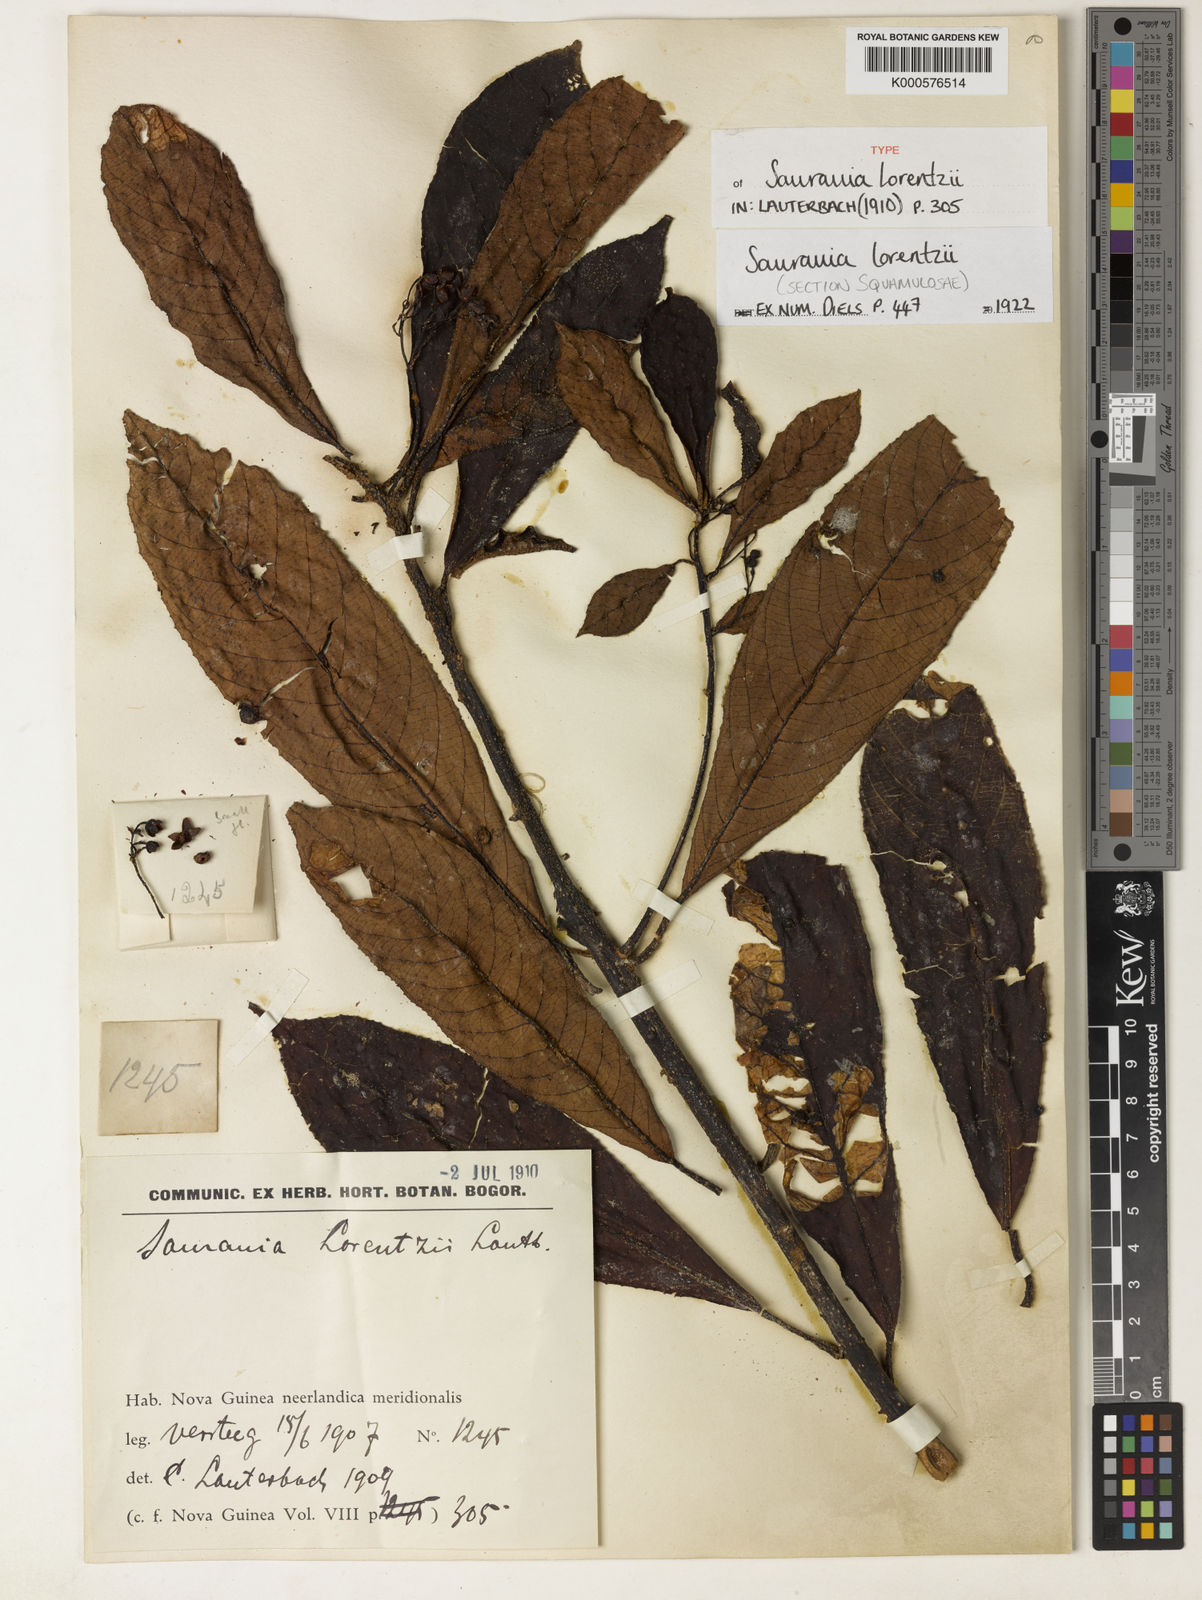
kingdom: Plantae
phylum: Tracheophyta
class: Magnoliopsida
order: Ericales
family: Actinidiaceae
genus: Saurauia
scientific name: Saurauia lorentzii
